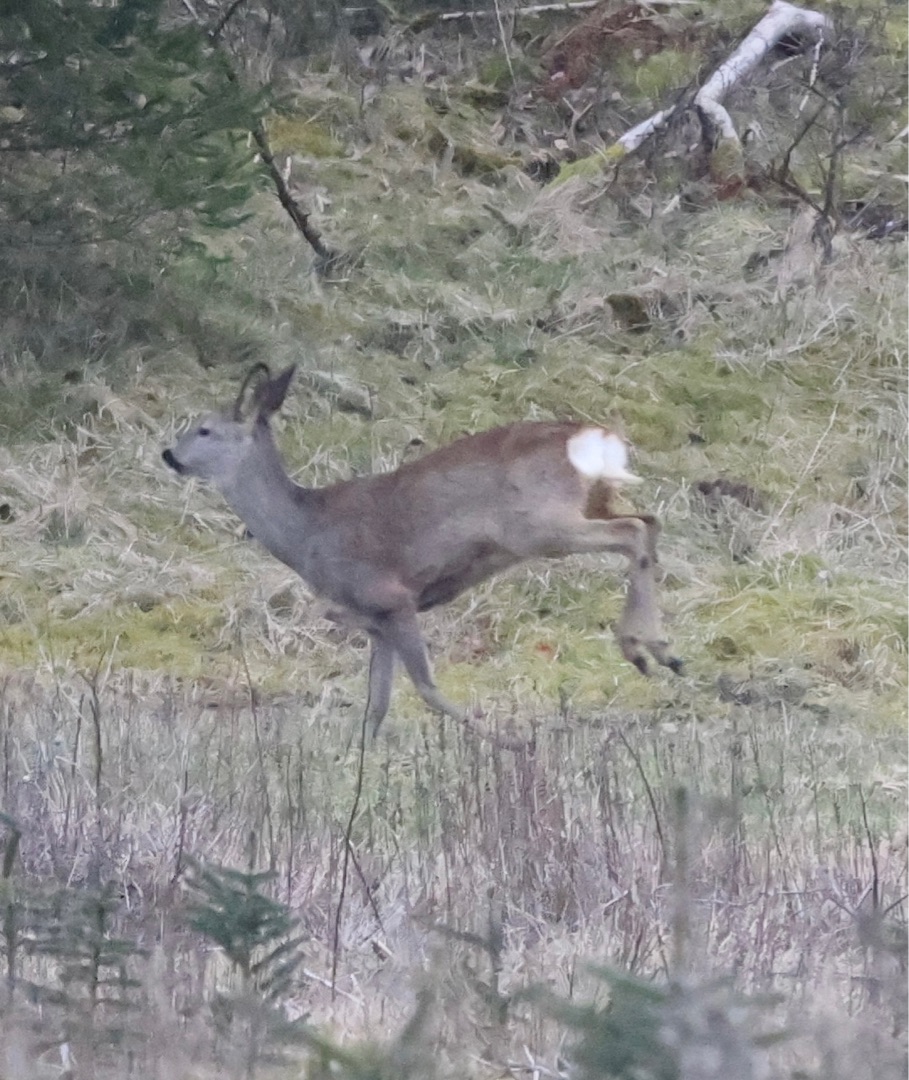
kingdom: Animalia
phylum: Chordata
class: Mammalia
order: Artiodactyla
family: Cervidae
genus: Capreolus
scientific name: Capreolus capreolus
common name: Rådyr
